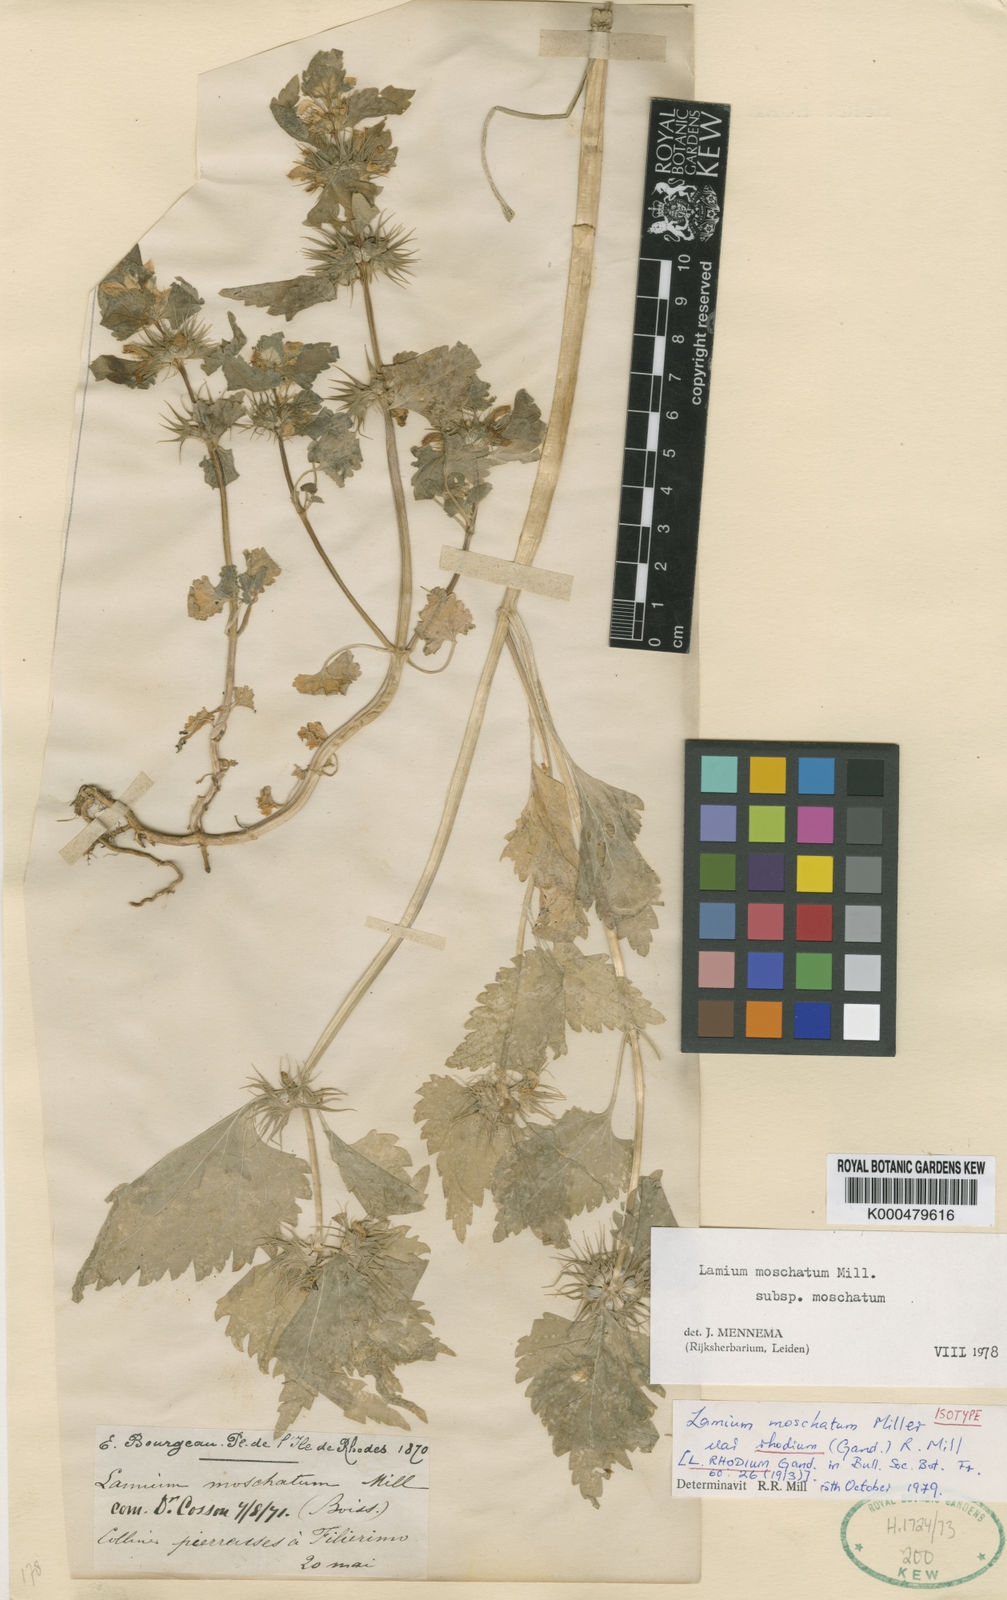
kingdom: Plantae
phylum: Tracheophyta
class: Magnoliopsida
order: Lamiales
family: Lamiaceae
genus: Lamium
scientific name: Lamium moschatum
